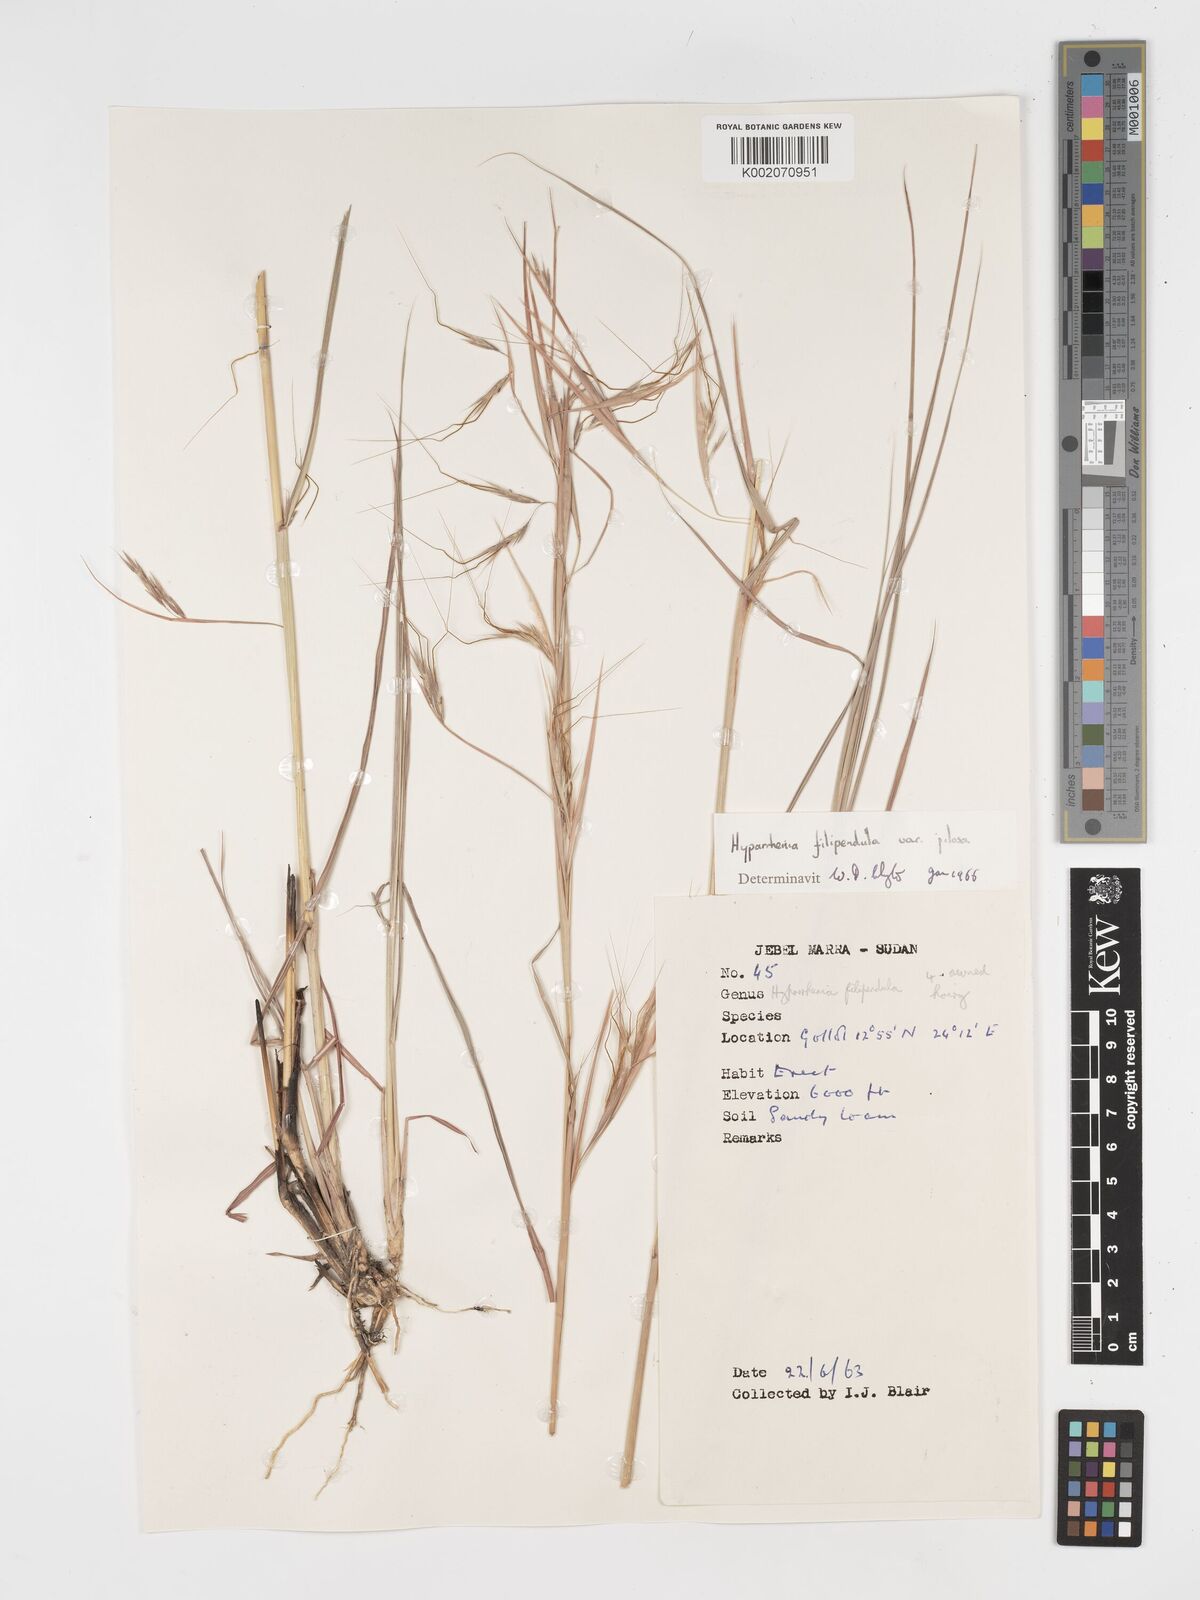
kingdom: Plantae
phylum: Tracheophyta
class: Liliopsida
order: Poales
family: Poaceae
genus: Hyparrhenia
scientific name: Hyparrhenia filipendula
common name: Tambookie grass
